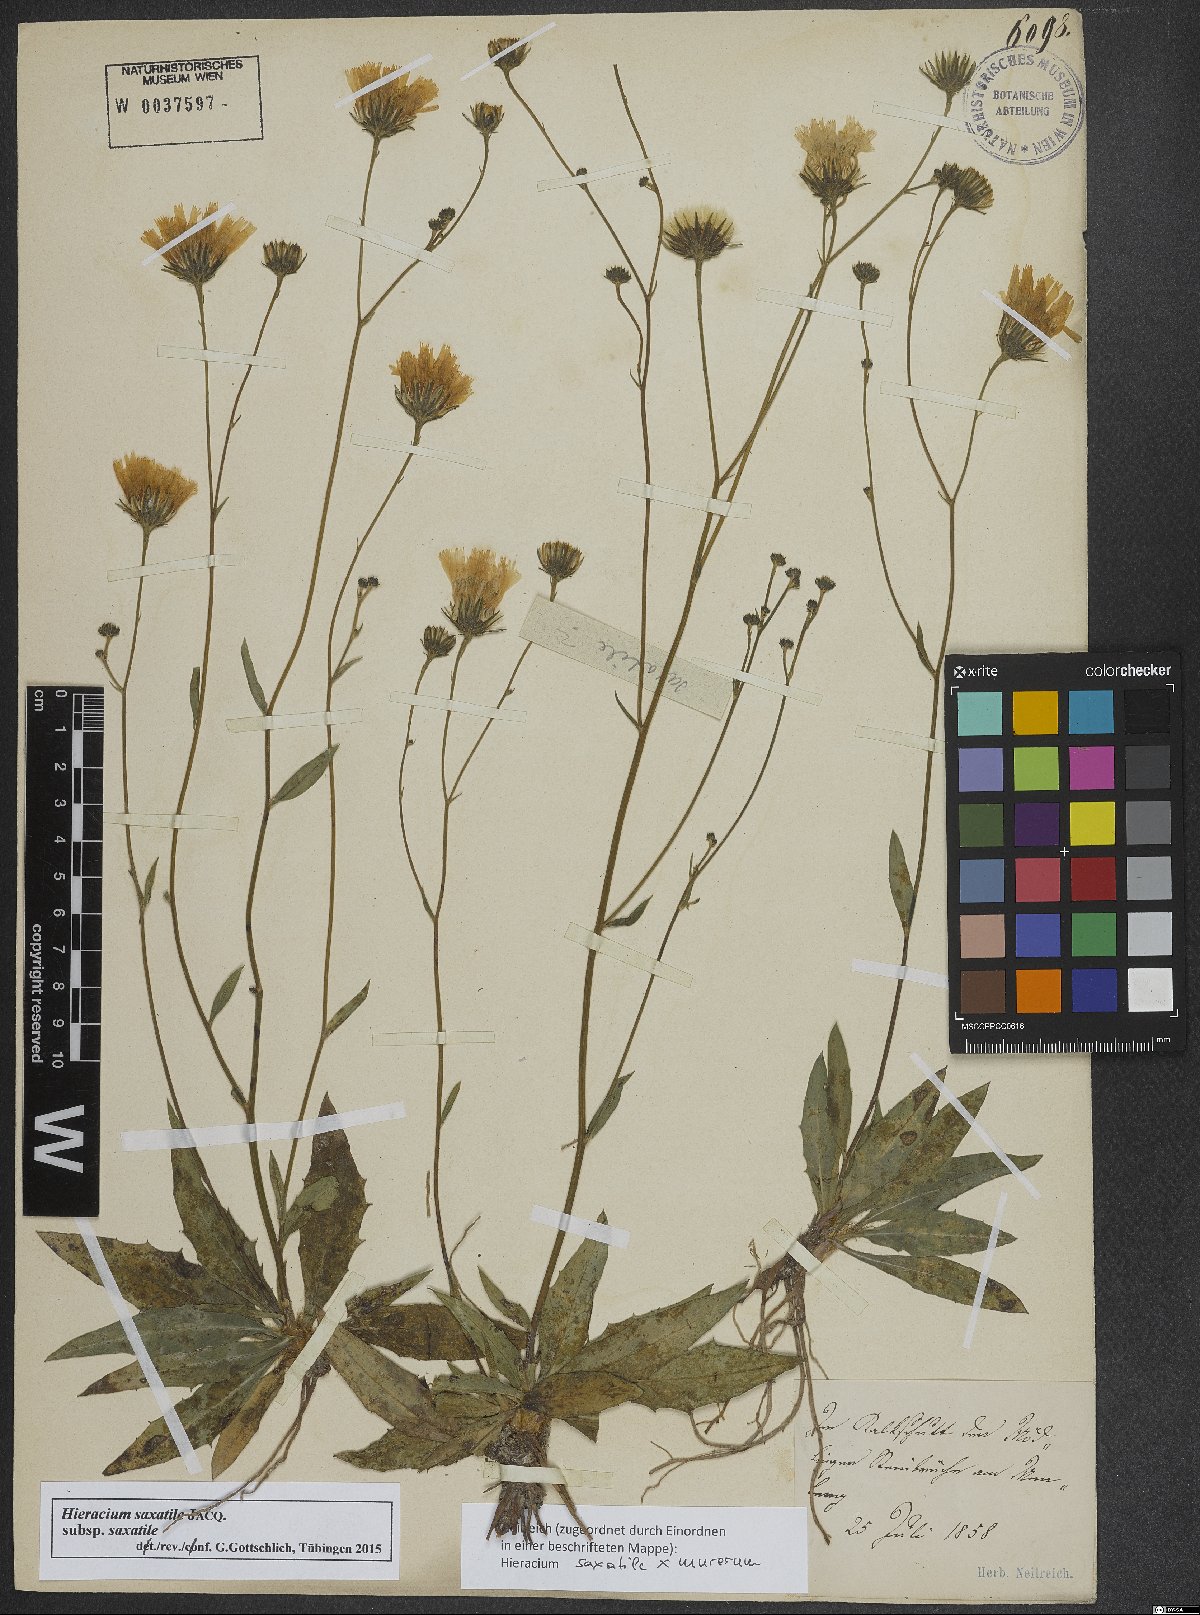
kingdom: Plantae
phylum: Tracheophyta
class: Magnoliopsida
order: Asterales
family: Asteraceae
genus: Hieracium
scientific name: Hieracium saxatile
